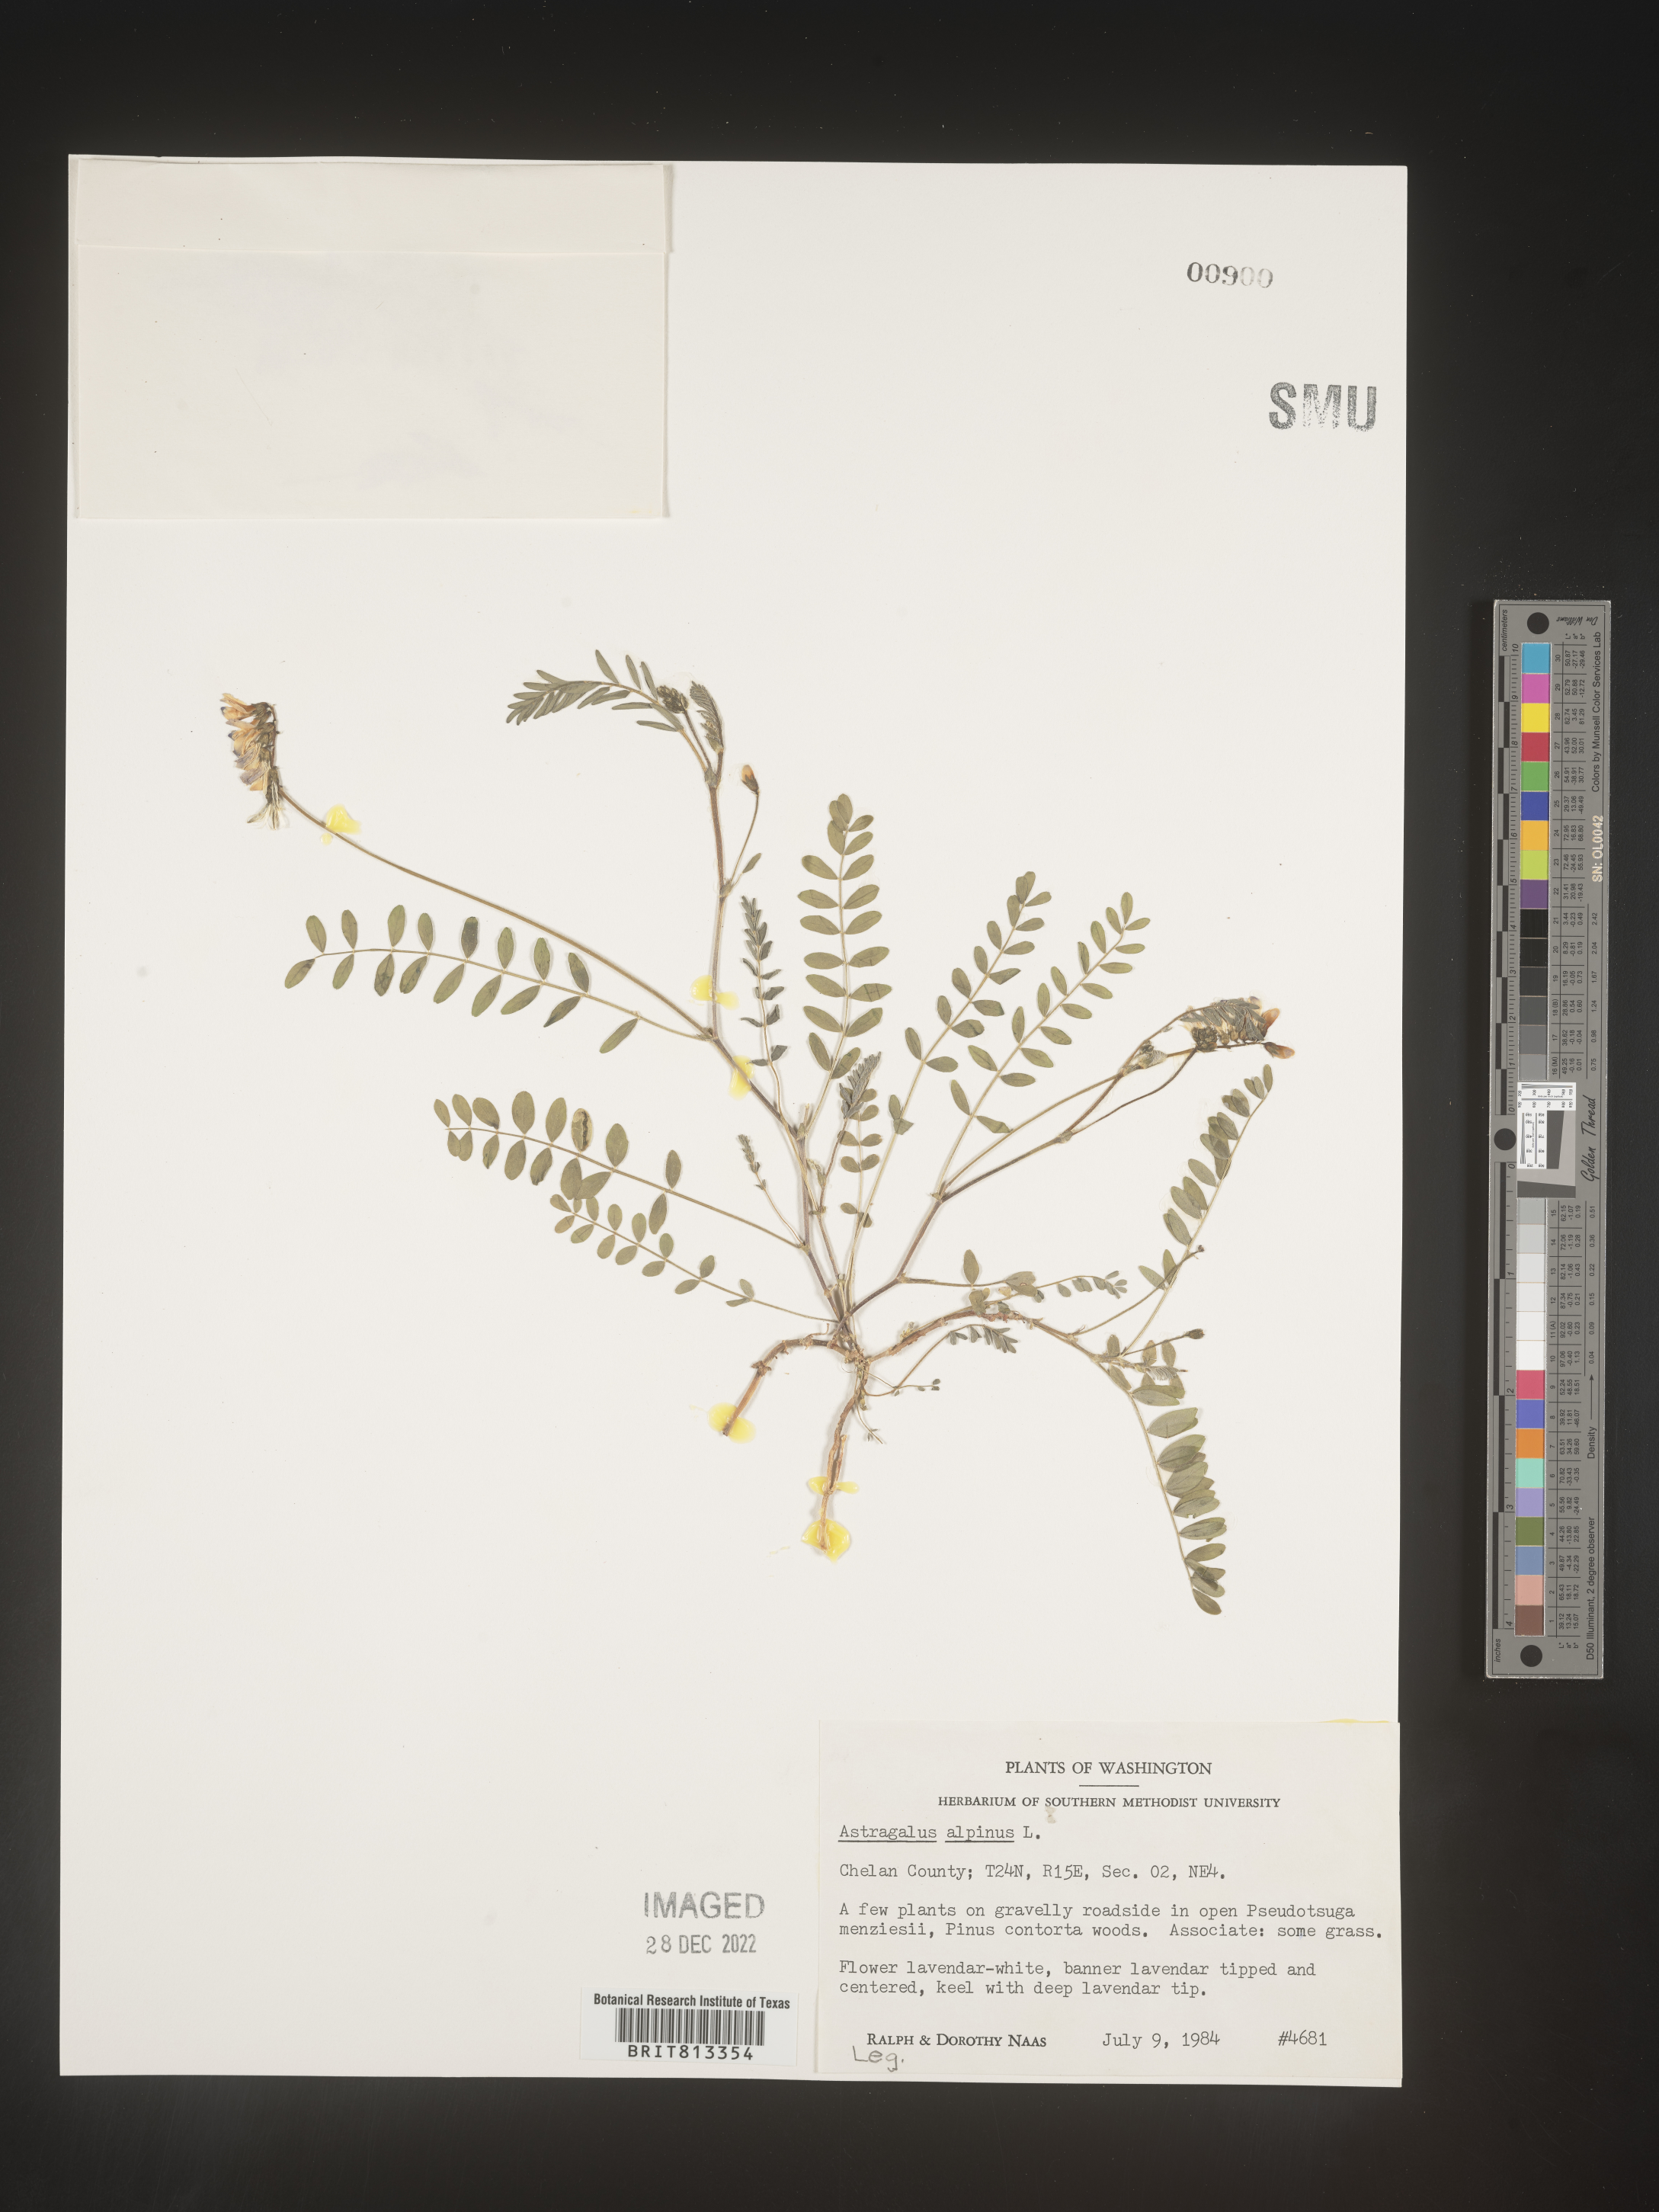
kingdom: Plantae
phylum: Tracheophyta
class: Magnoliopsida
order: Fabales
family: Fabaceae
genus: Astragalus
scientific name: Astragalus alpinus
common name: Alpine milk-vetch
